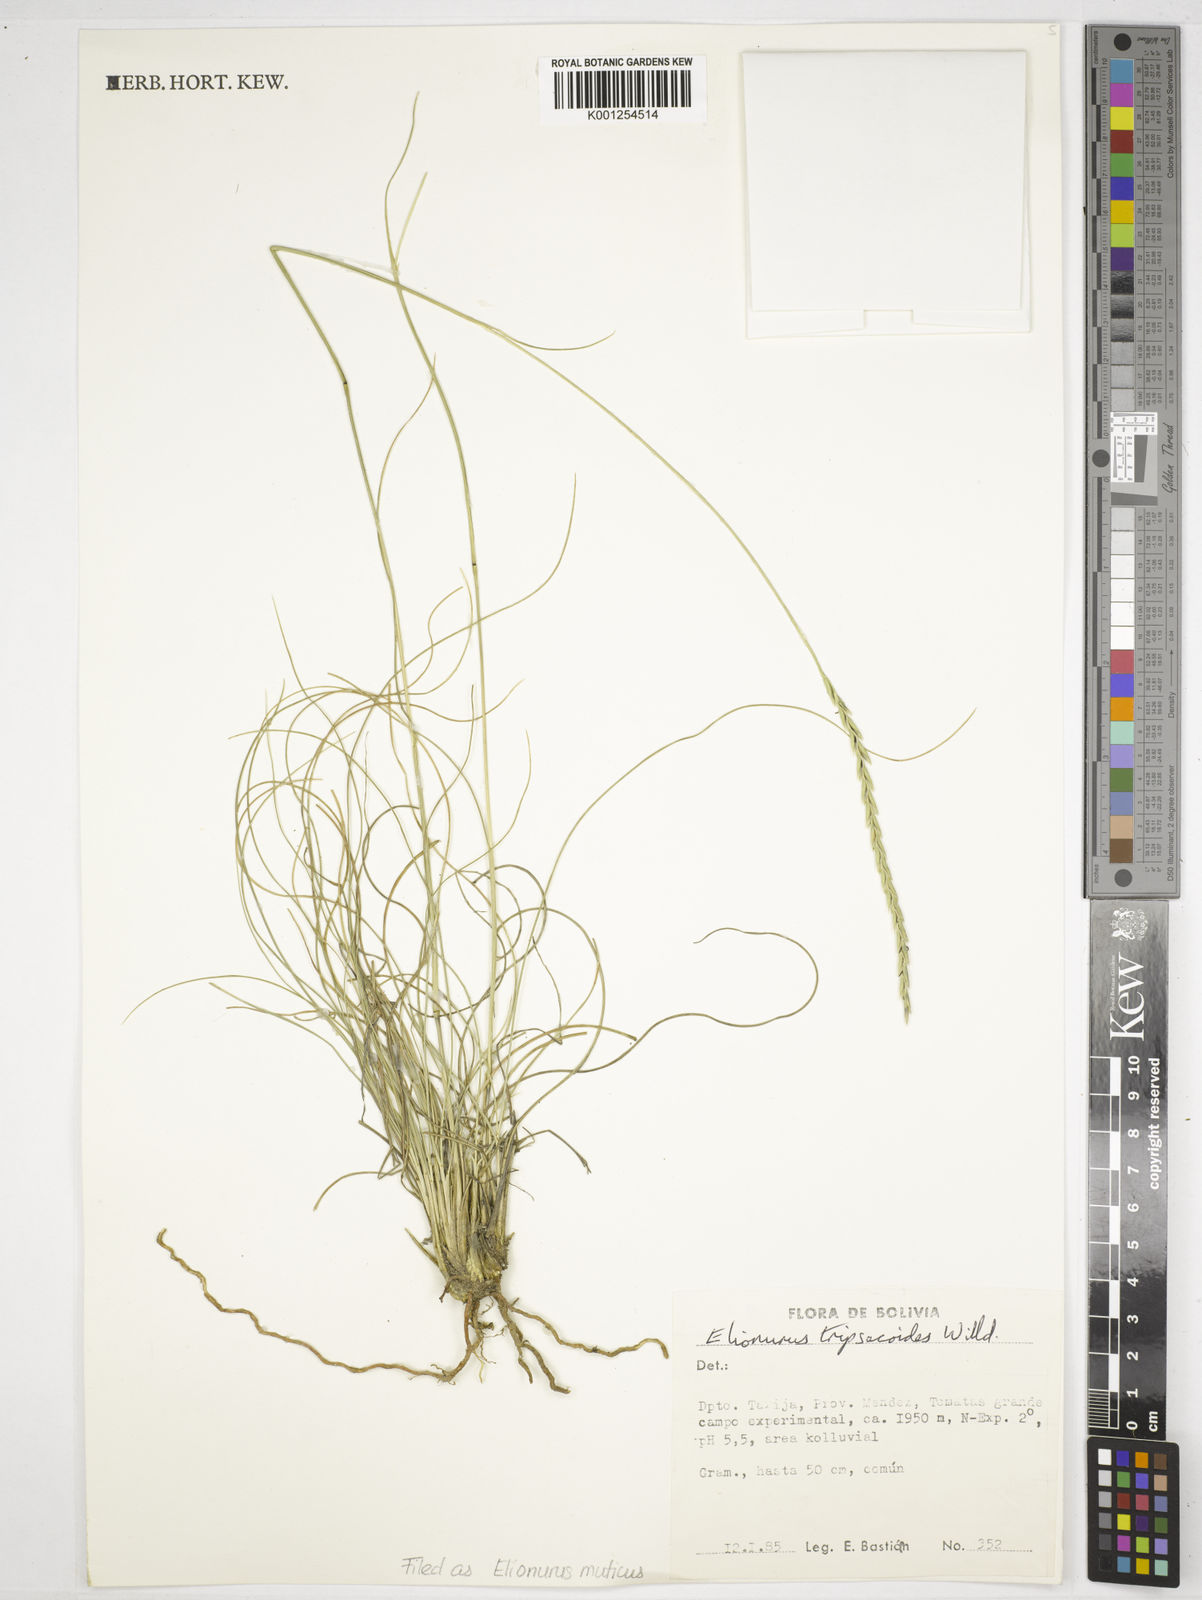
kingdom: Plantae
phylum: Tracheophyta
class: Liliopsida
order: Poales
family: Poaceae
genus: Elionurus
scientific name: Elionurus muticus
